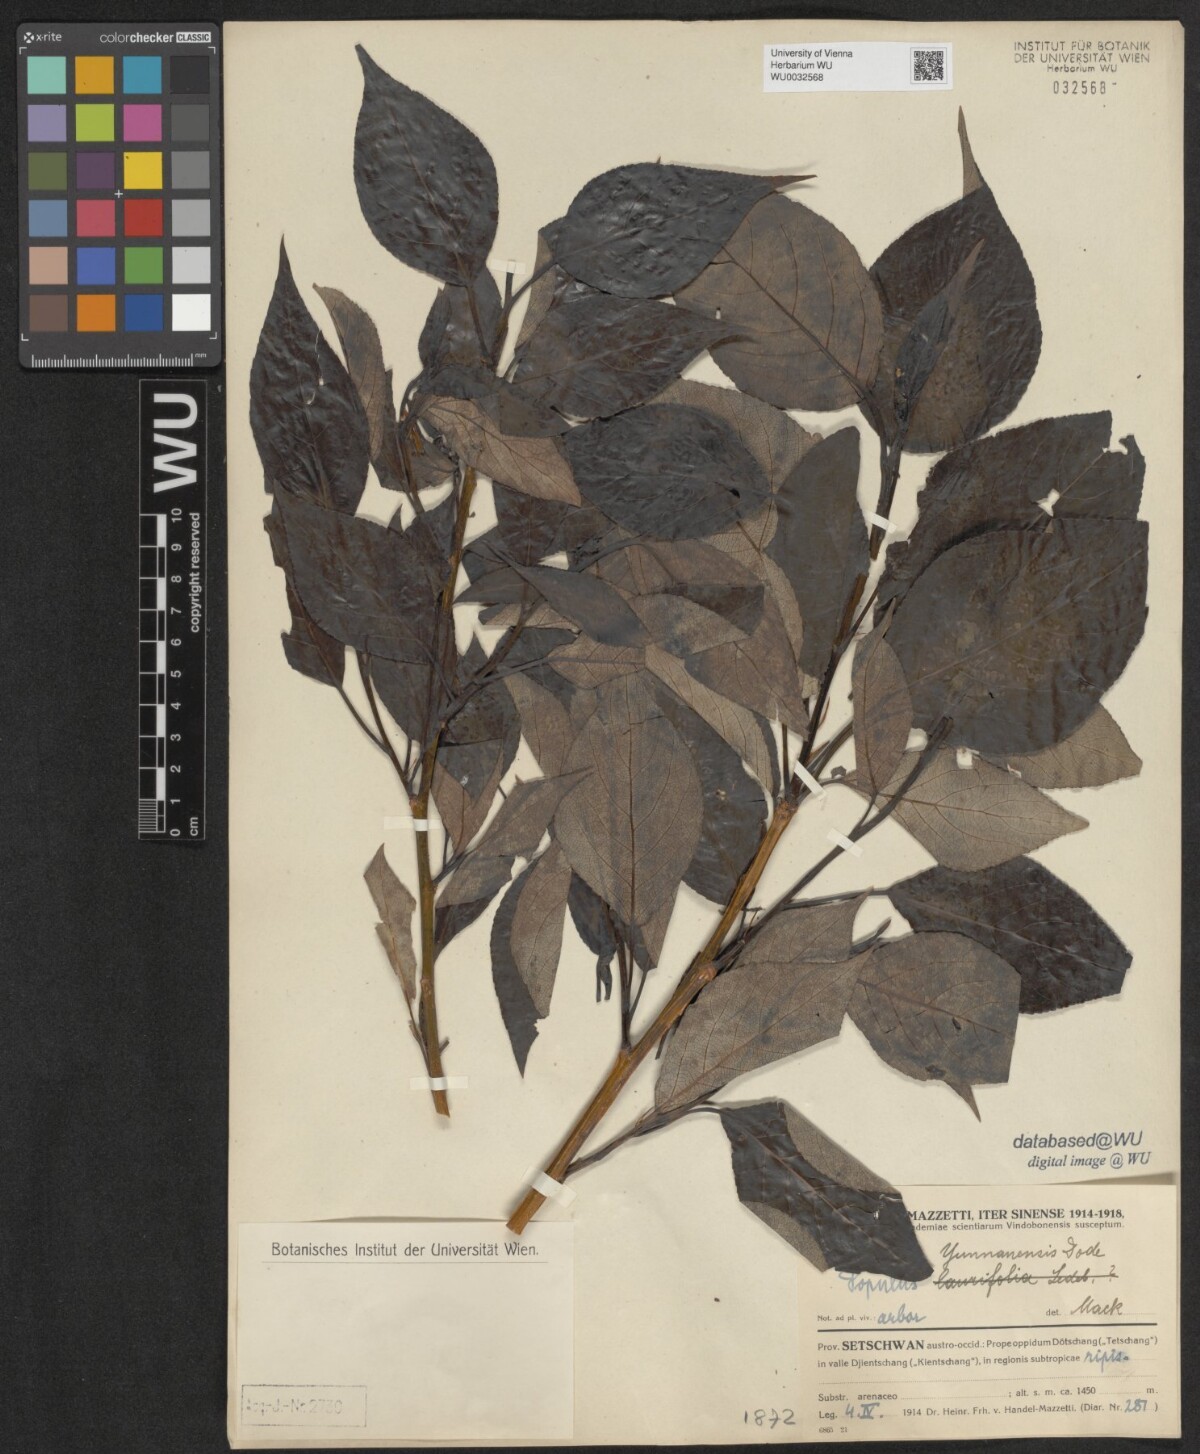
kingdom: Plantae
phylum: Tracheophyta
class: Magnoliopsida
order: Malpighiales
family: Salicaceae
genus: Populus
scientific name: Populus yunnanensis
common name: Yunnan poplar
